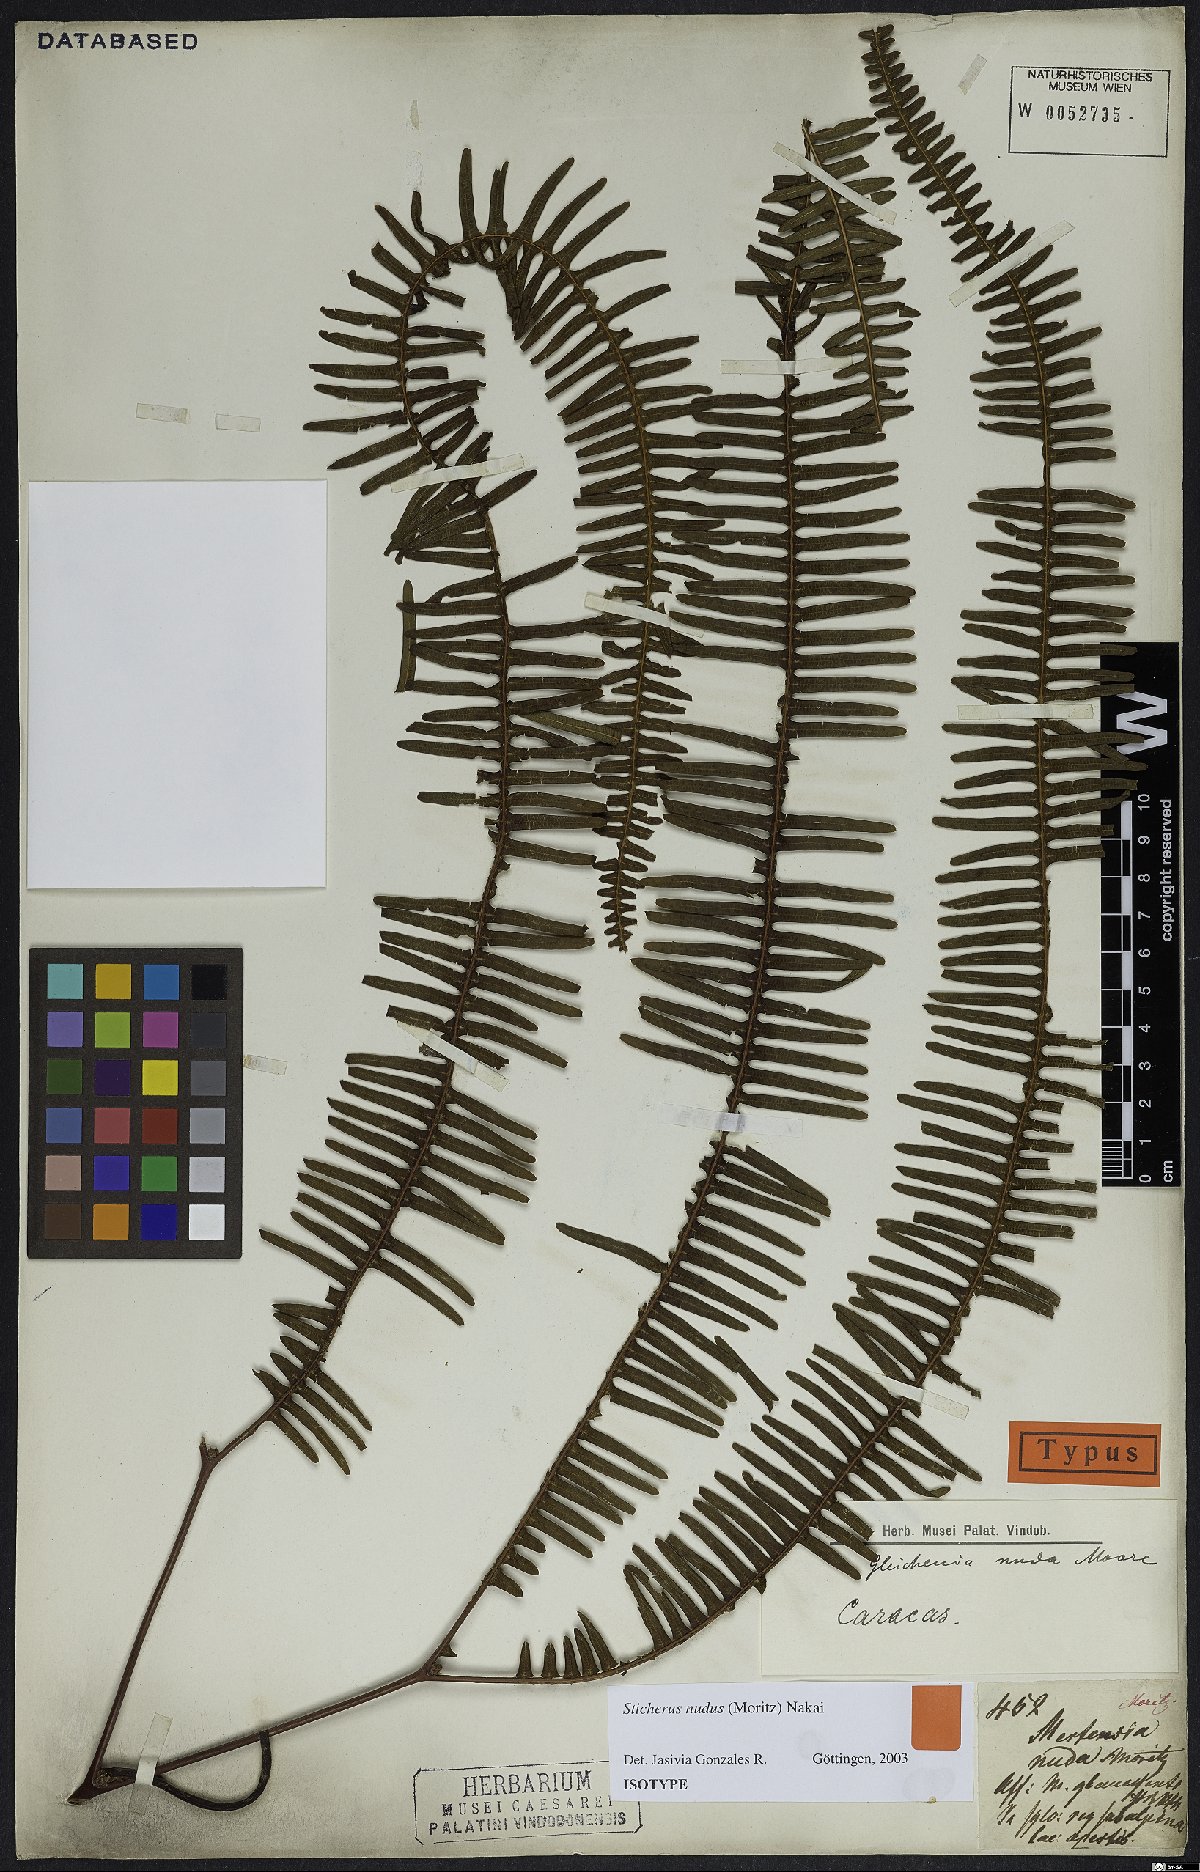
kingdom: Plantae
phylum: Tracheophyta
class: Polypodiopsida
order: Gleicheniales
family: Gleicheniaceae
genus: Sticherus
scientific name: Sticherus nudus
